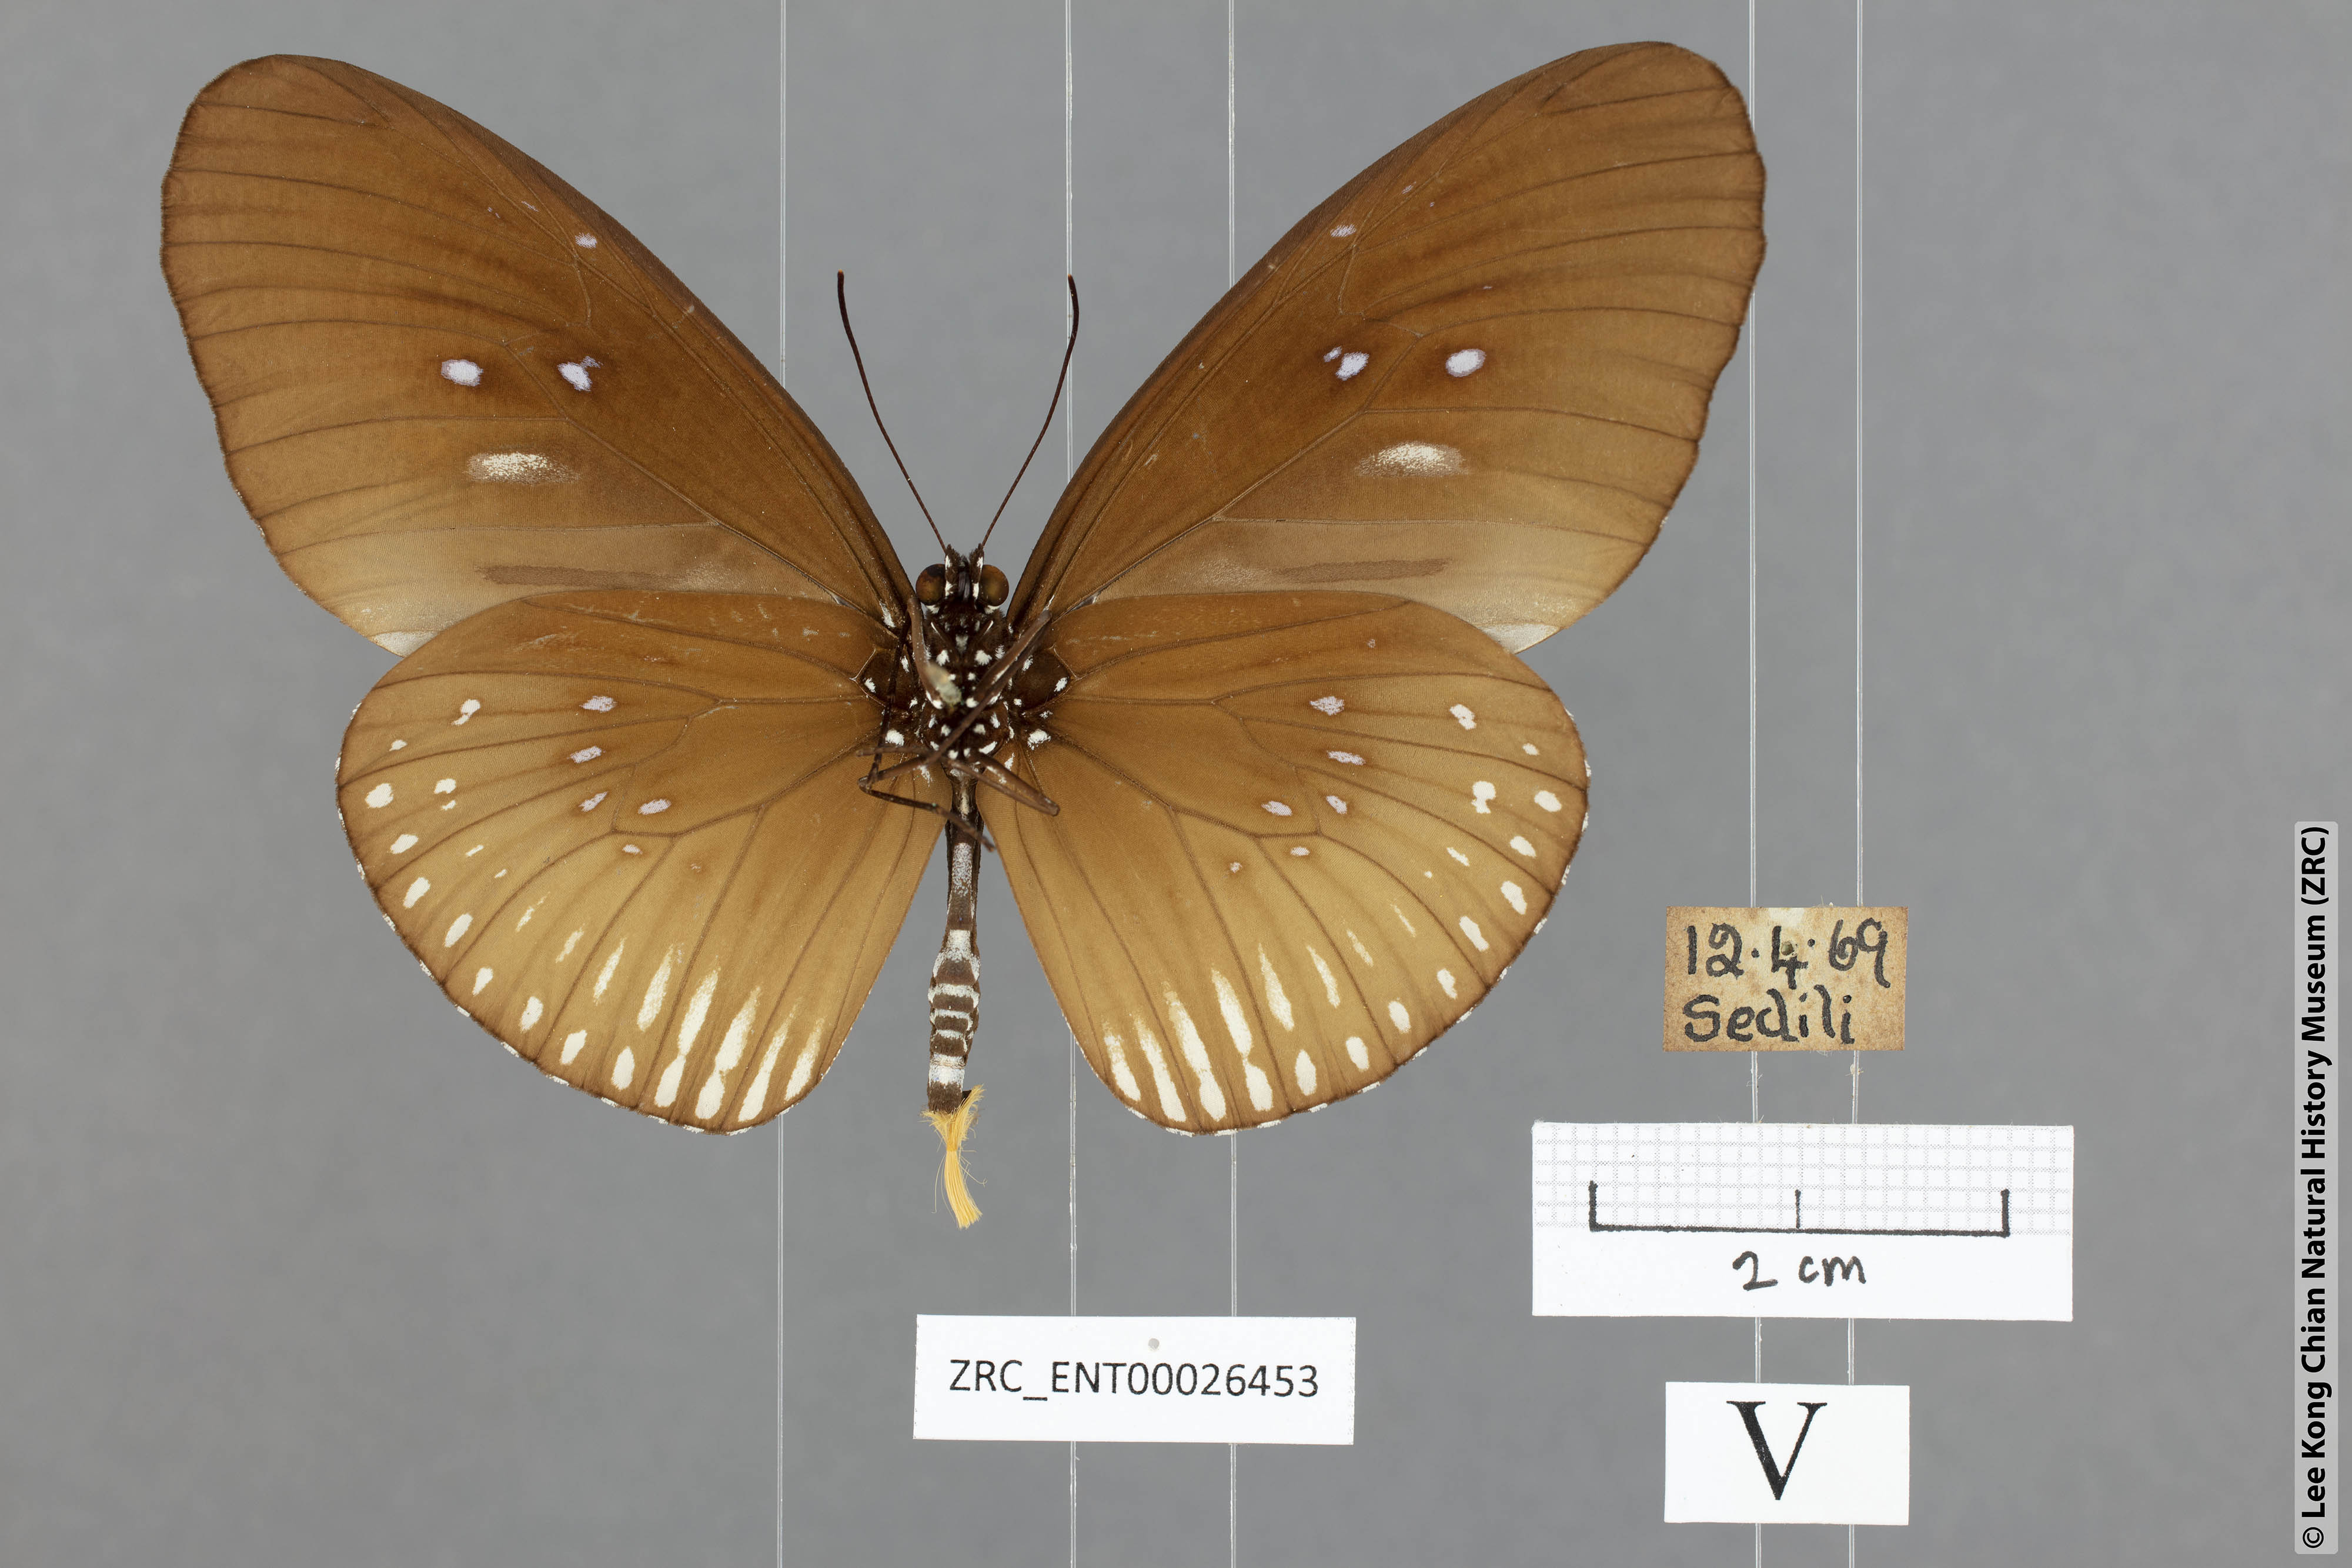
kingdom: Animalia
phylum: Arthropoda
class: Insecta
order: Lepidoptera
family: Nymphalidae
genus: Euploea
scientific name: Euploea eyndhovii
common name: Striped black crow butterfly
